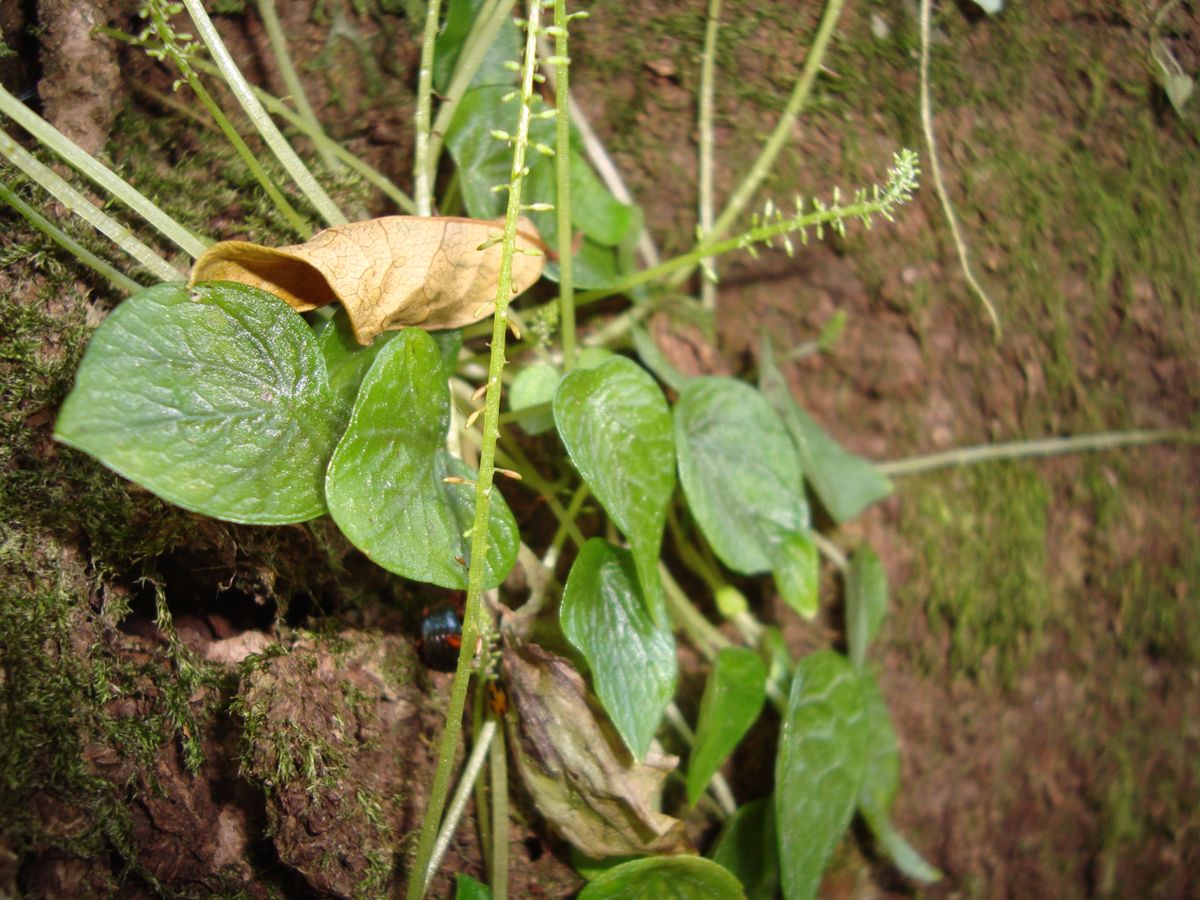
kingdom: Plantae
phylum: Tracheophyta
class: Magnoliopsida
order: Piperales
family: Piperaceae
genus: Peperomia
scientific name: Peperomia
